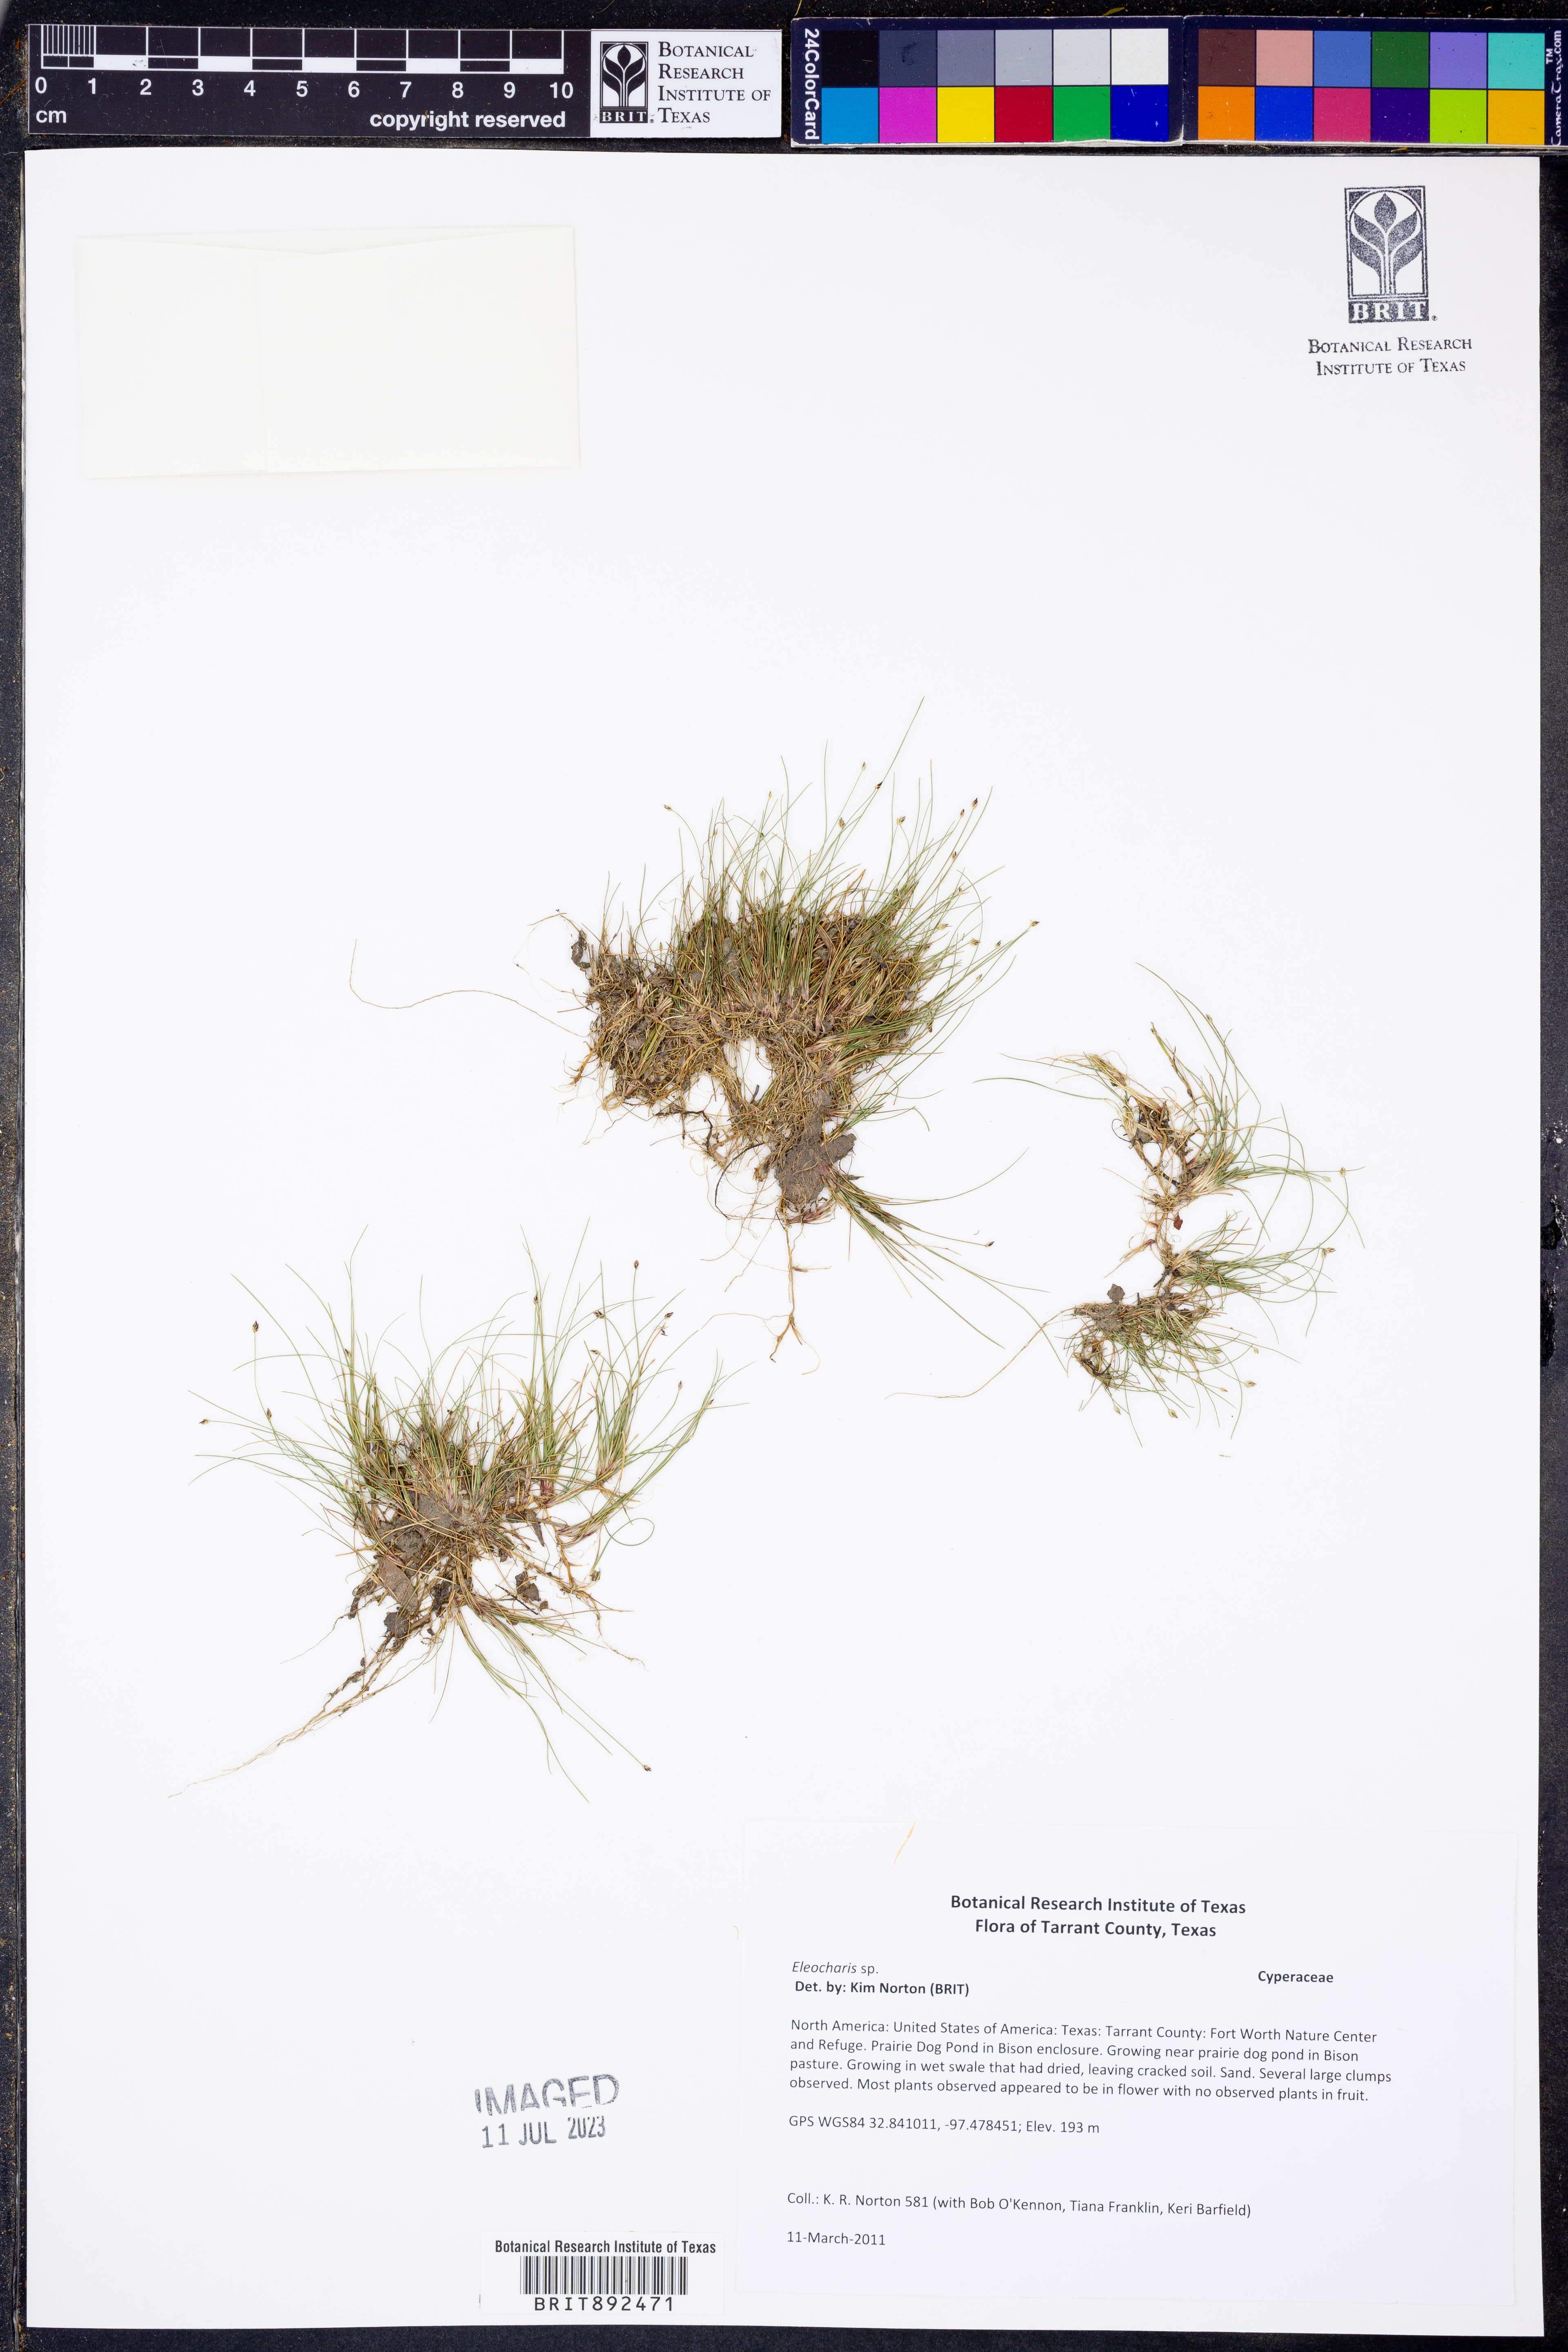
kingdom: Plantae
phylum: Tracheophyta
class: Liliopsida
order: Poales
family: Cyperaceae
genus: Eleocharis
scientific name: Eleocharis
